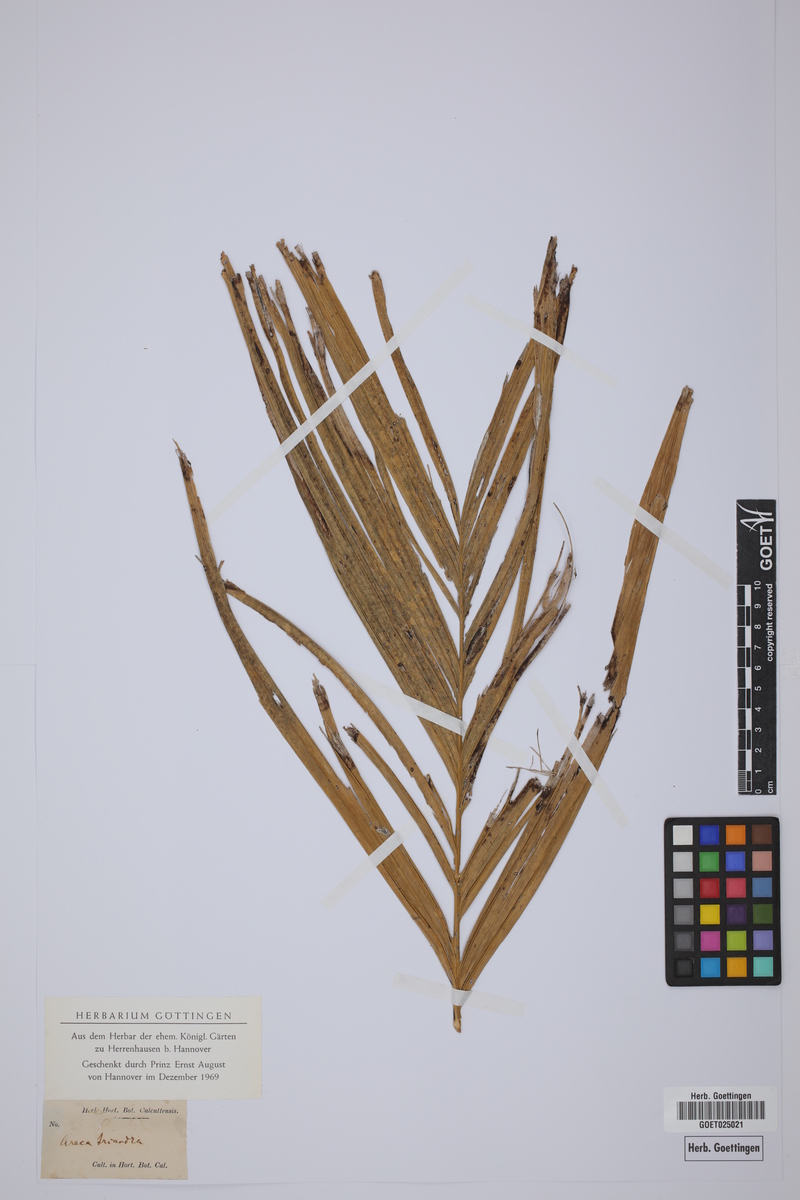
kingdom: Plantae
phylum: Tracheophyta
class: Liliopsida
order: Arecales
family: Arecaceae
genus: Areca
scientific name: Areca triandra
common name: Australian areca palm
